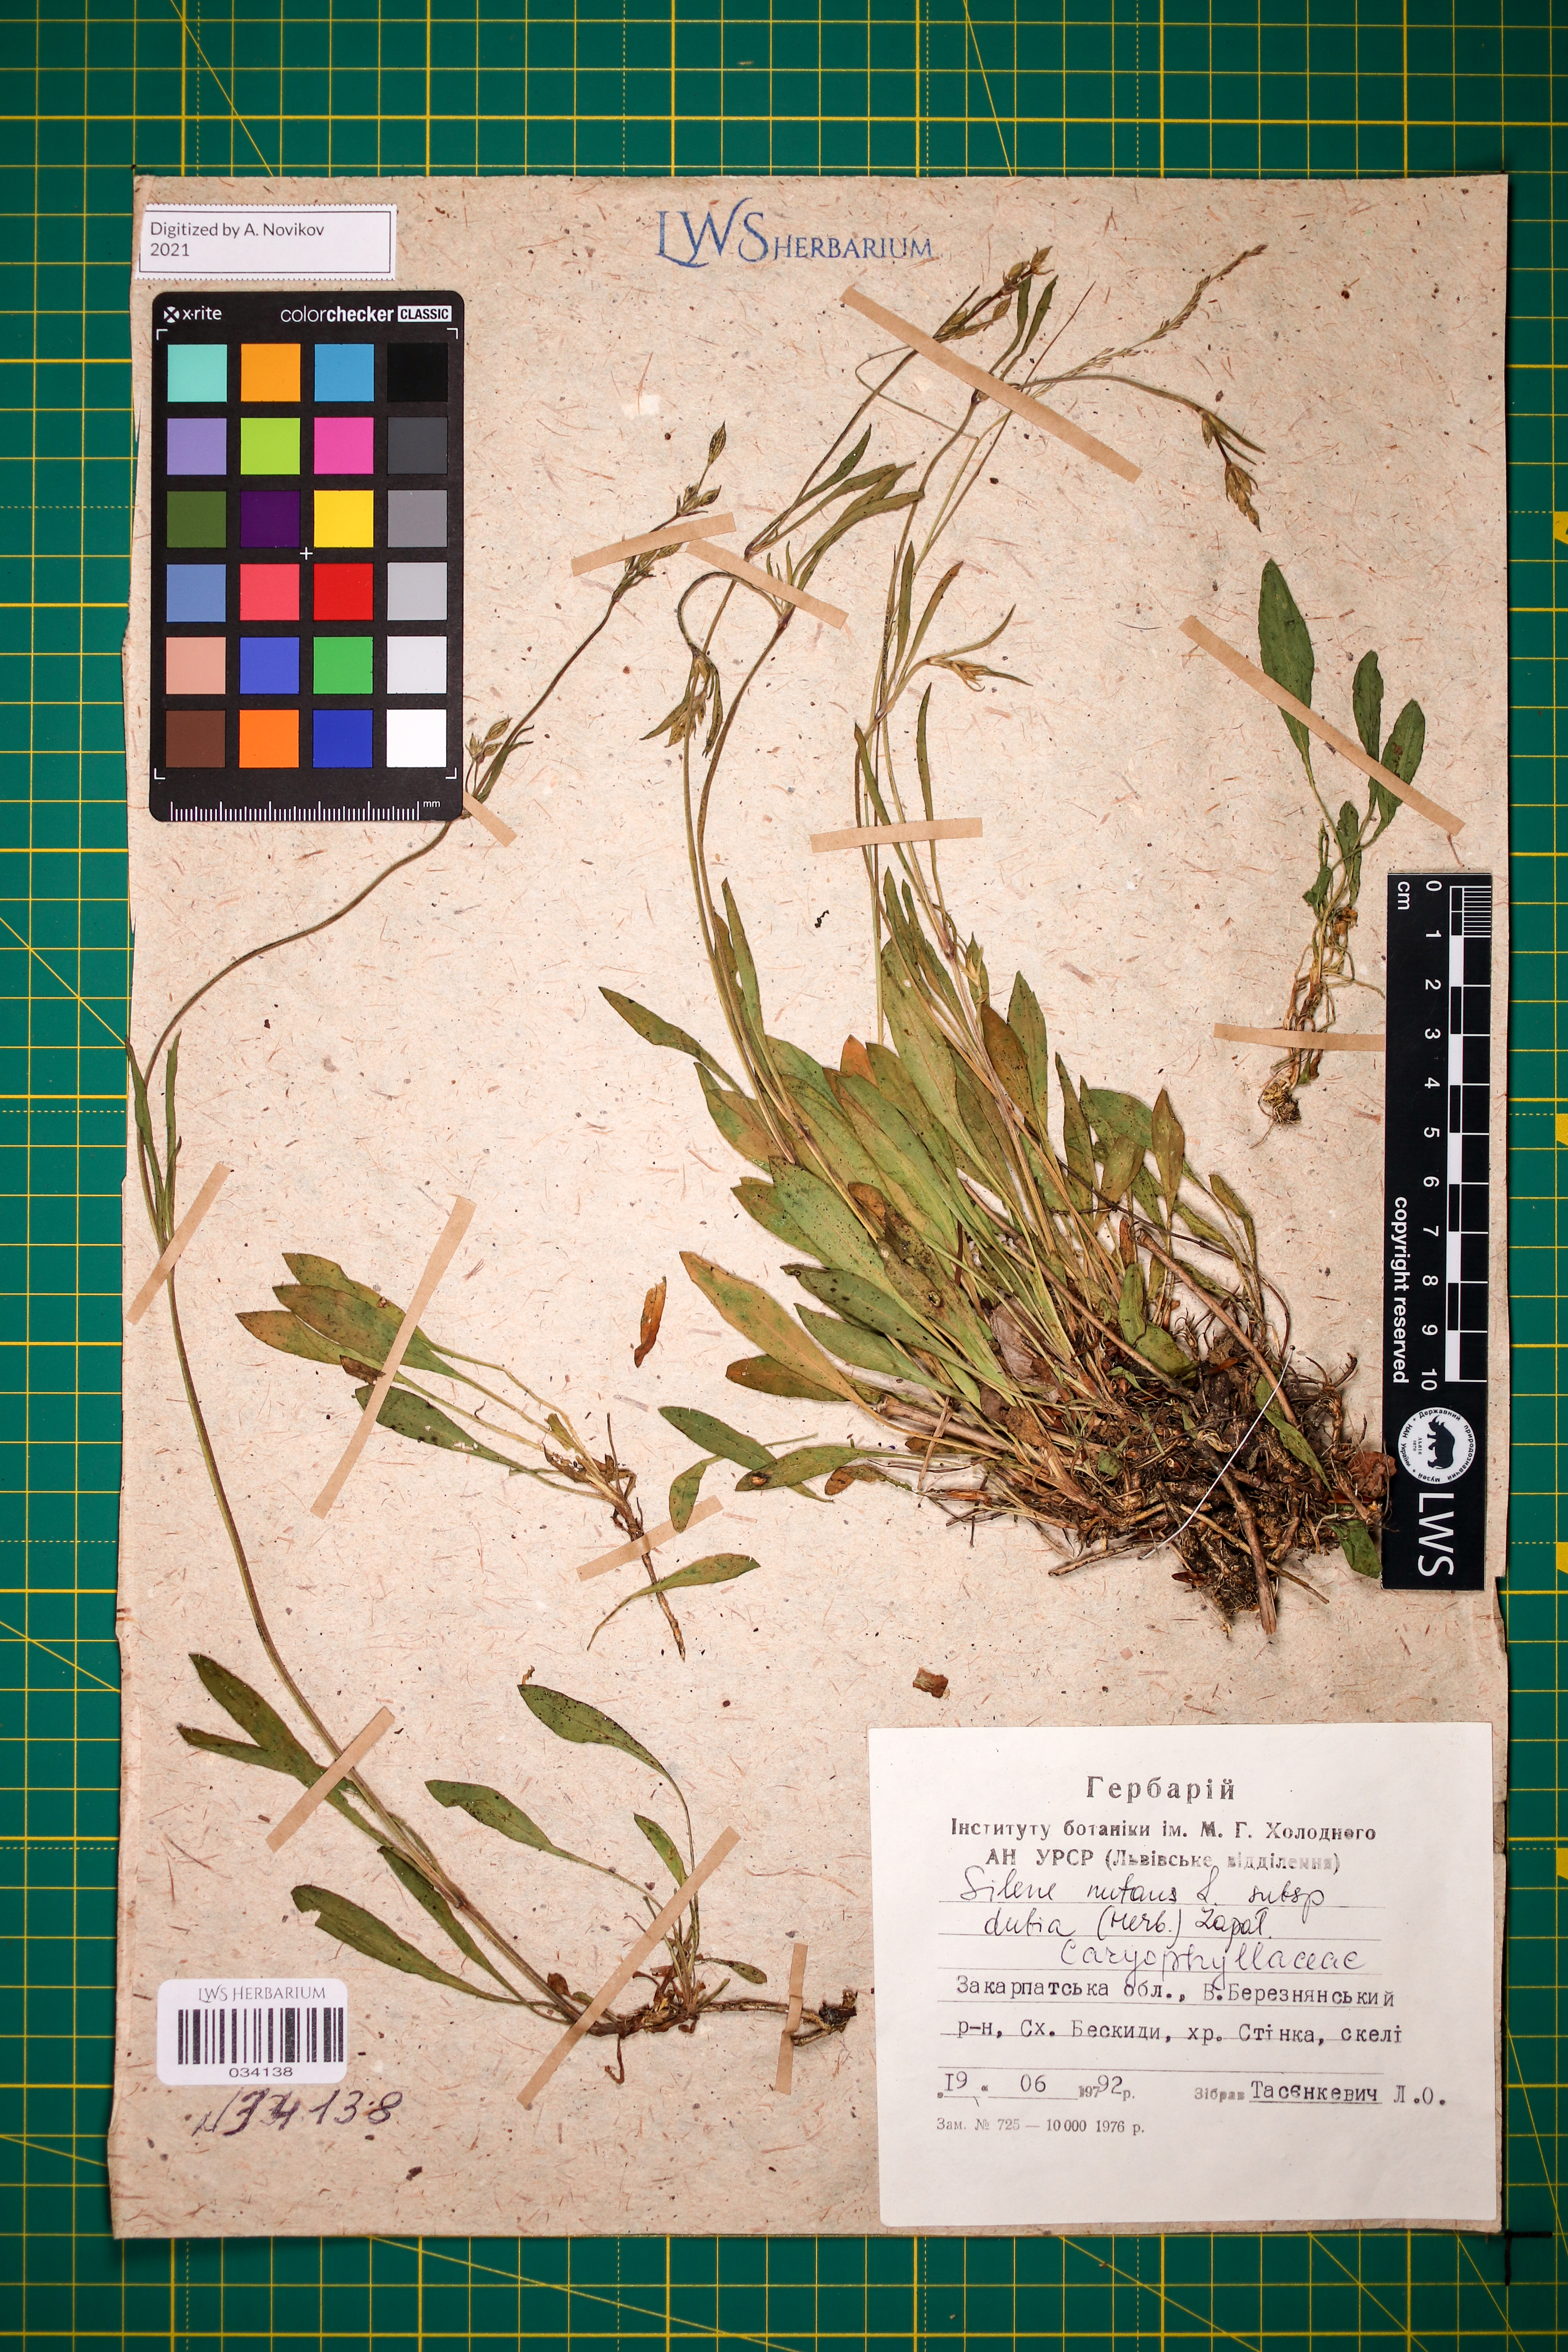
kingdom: Plantae
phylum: Tracheophyta
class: Magnoliopsida
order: Caryophyllales
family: Caryophyllaceae
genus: Silene
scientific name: Silene nutans
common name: Nottingham catchfly
